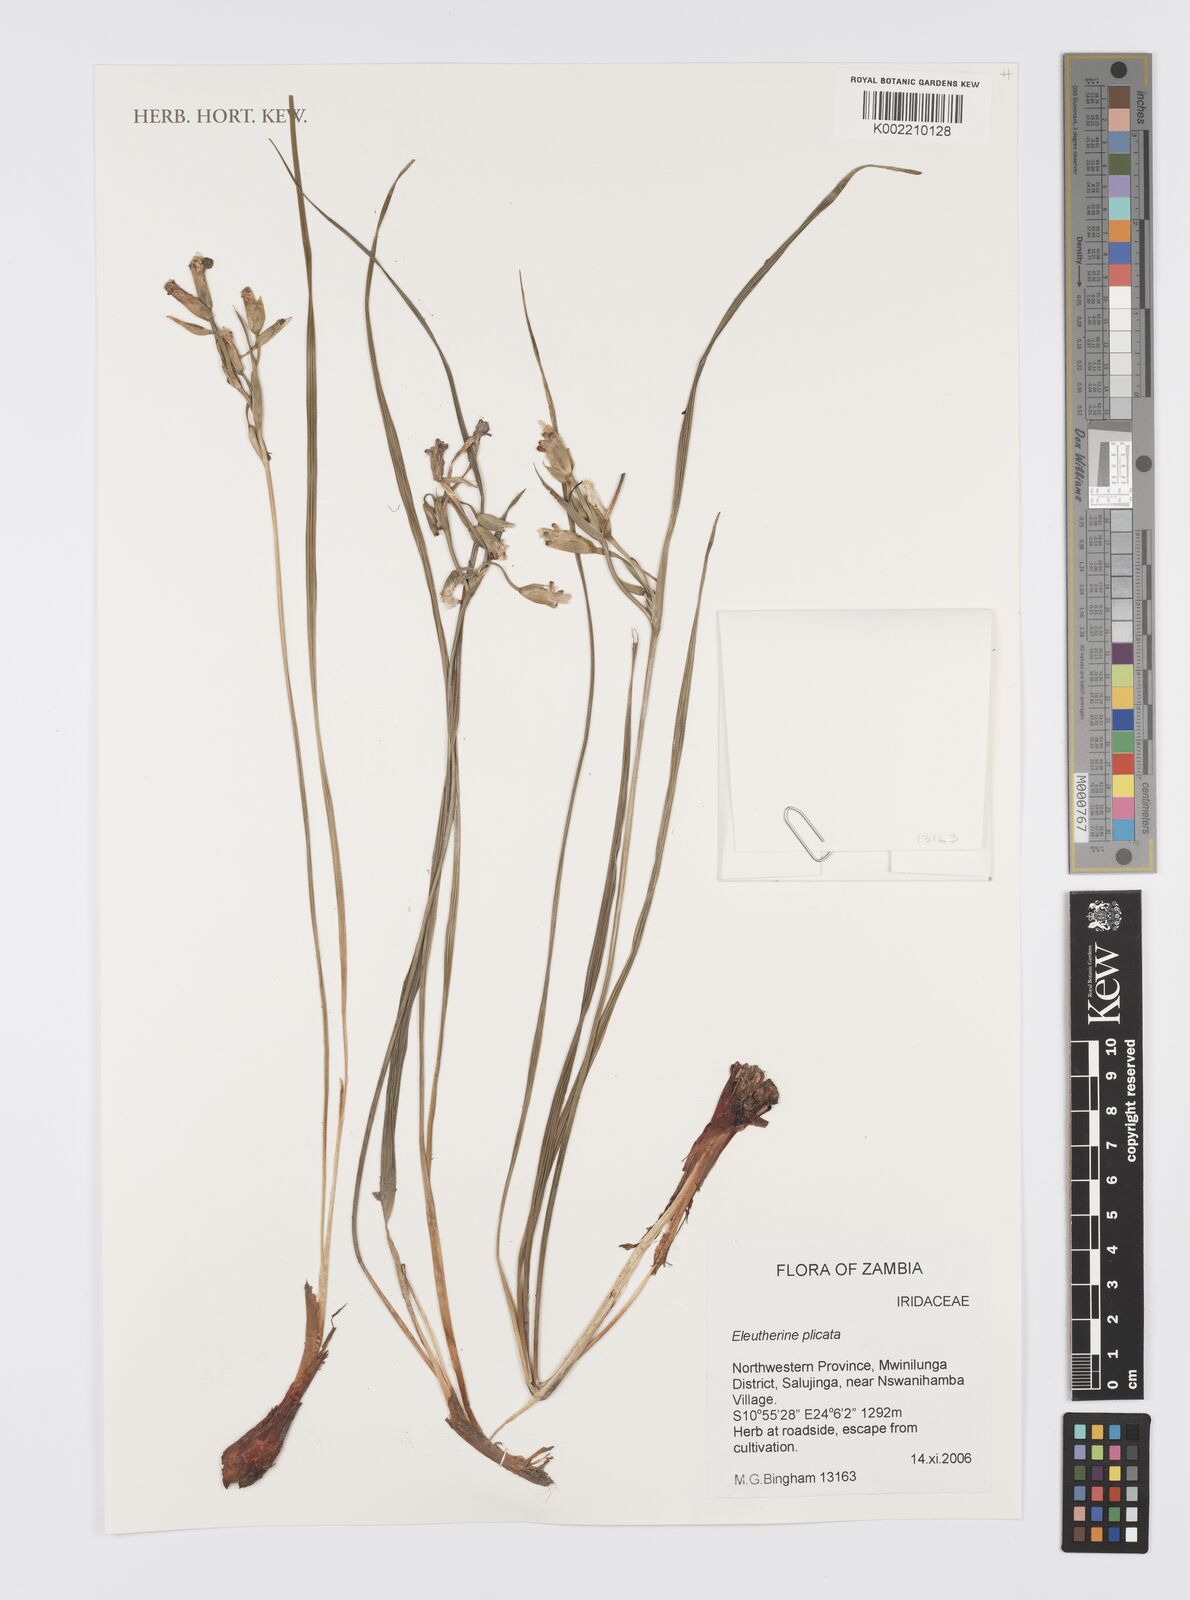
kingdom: Plantae
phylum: Tracheophyta
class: Liliopsida
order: Asparagales
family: Iridaceae
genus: Eleutherine
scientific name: Eleutherine bulbosa
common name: Lagrimas de la virgen
